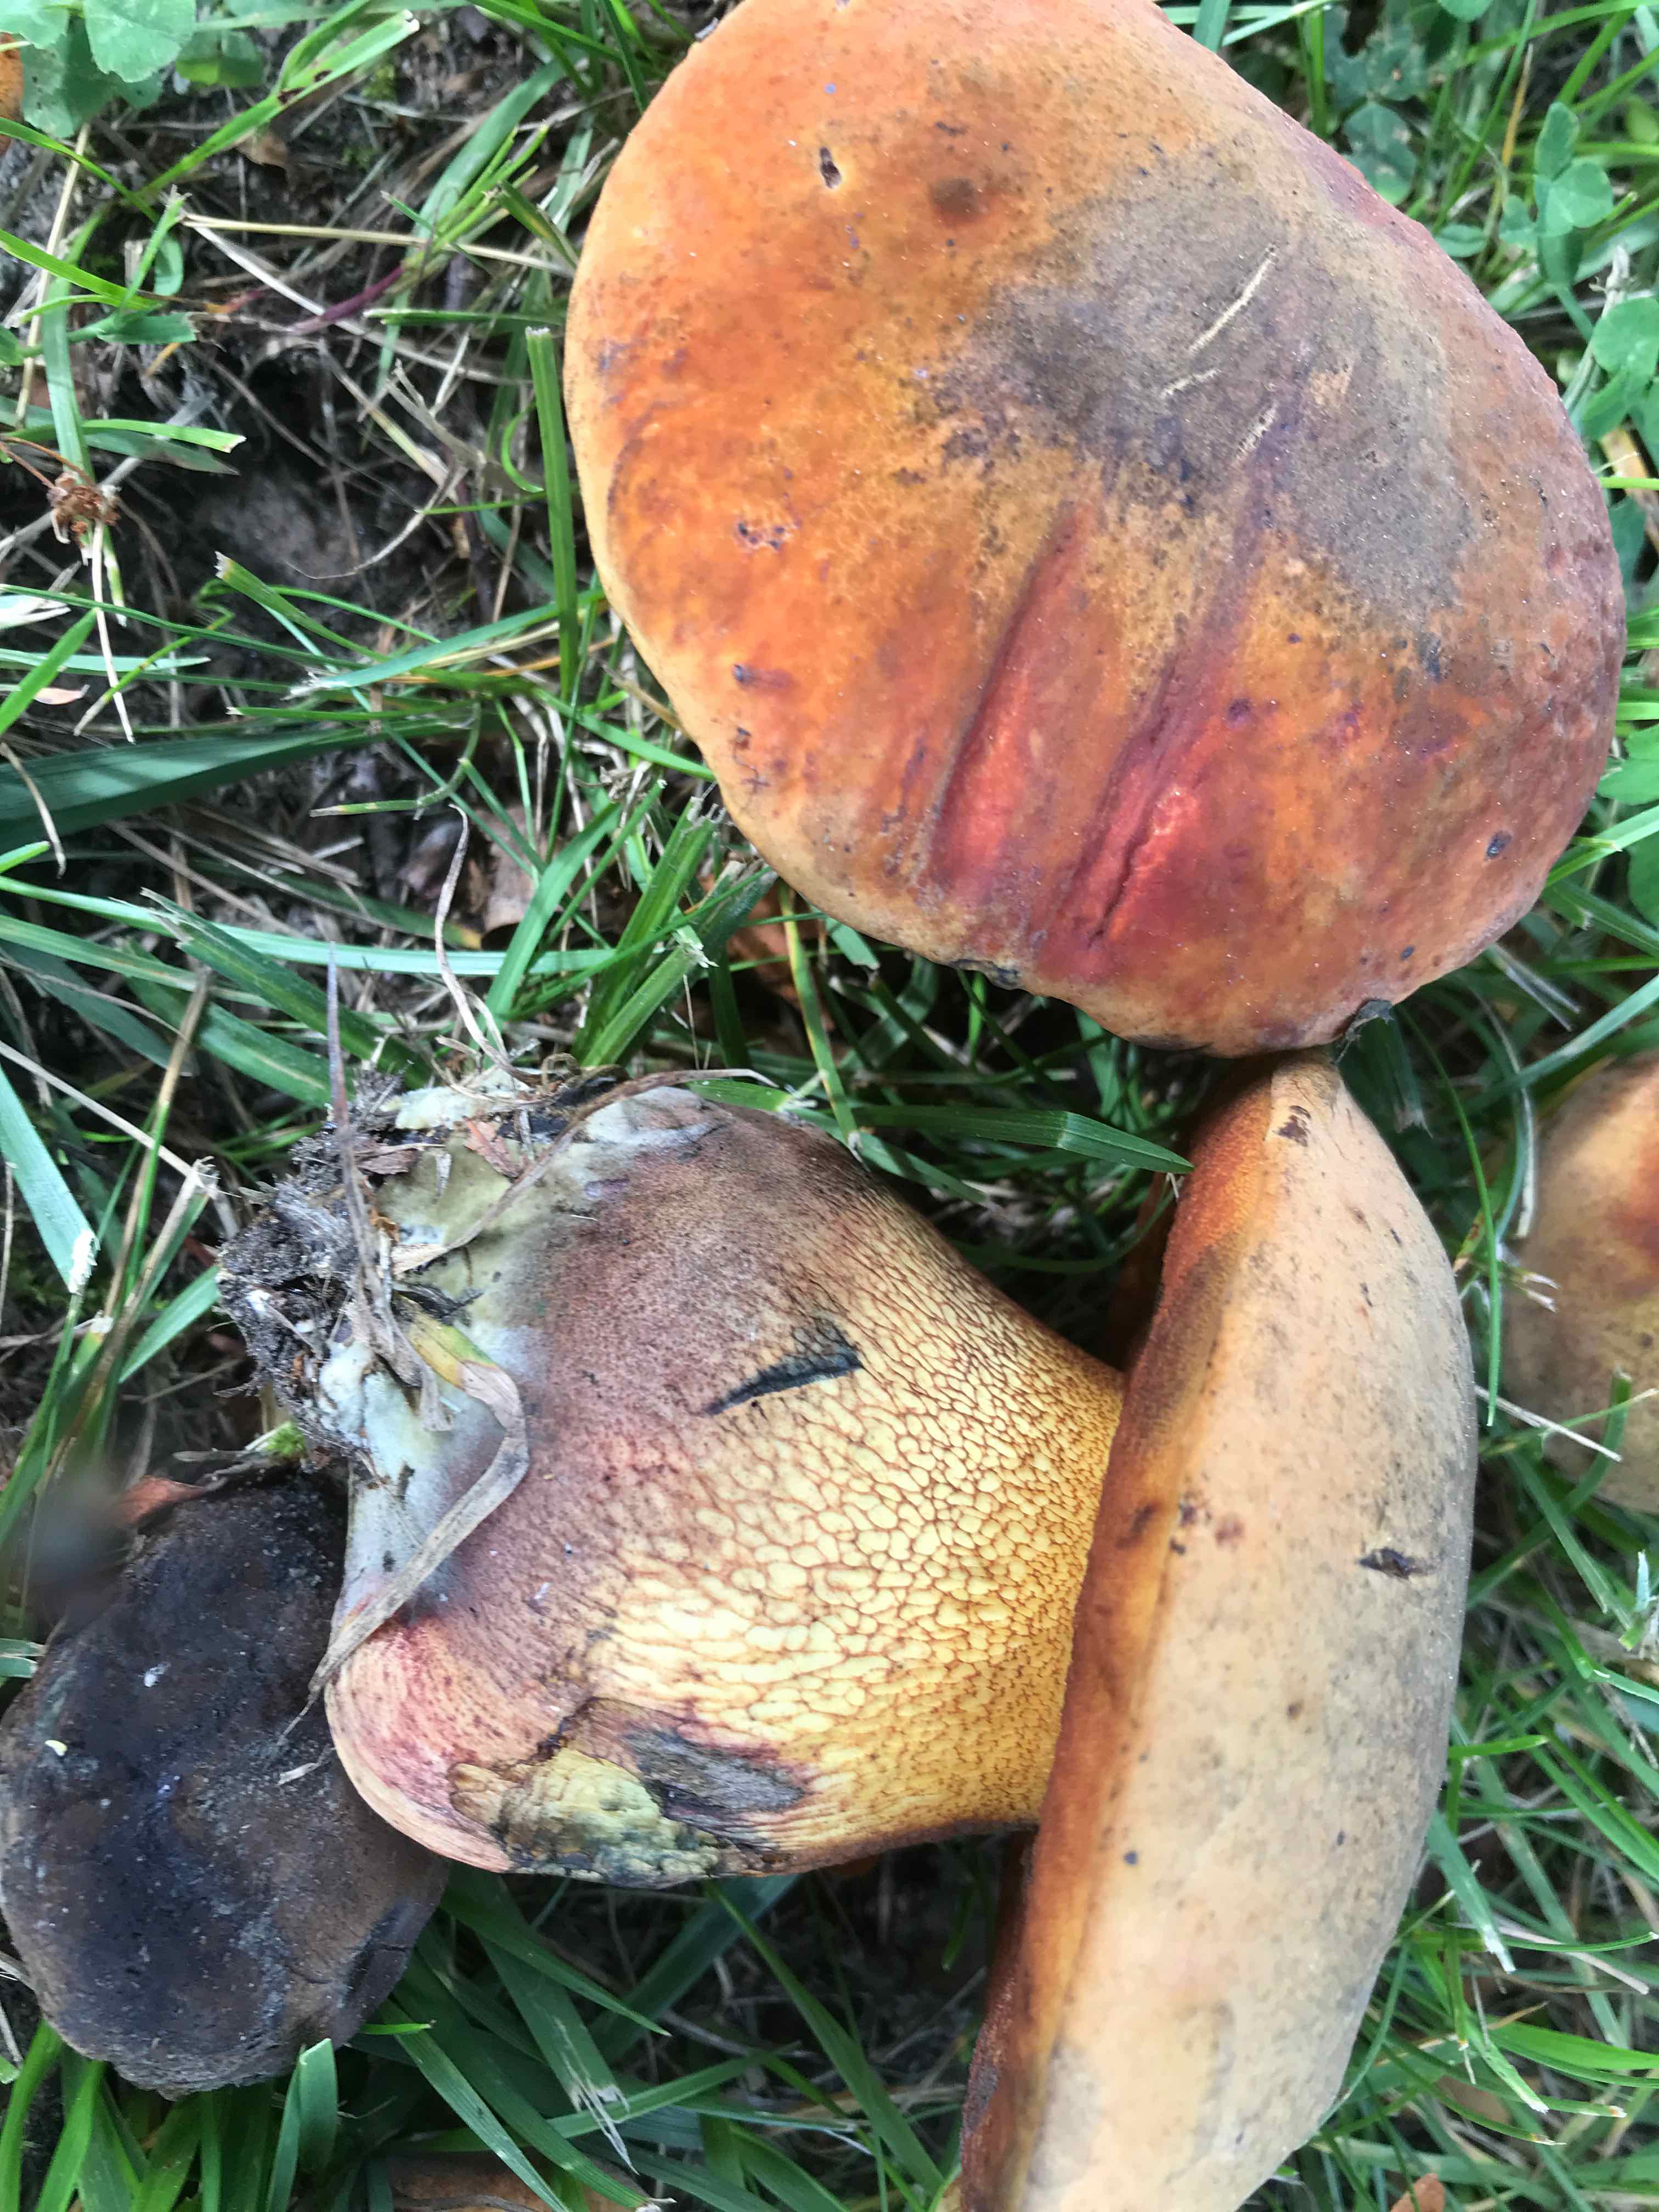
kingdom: Fungi
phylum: Basidiomycota
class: Agaricomycetes
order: Boletales
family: Boletaceae
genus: Suillellus
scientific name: Suillellus luridus
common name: netstokket indigorørhat
